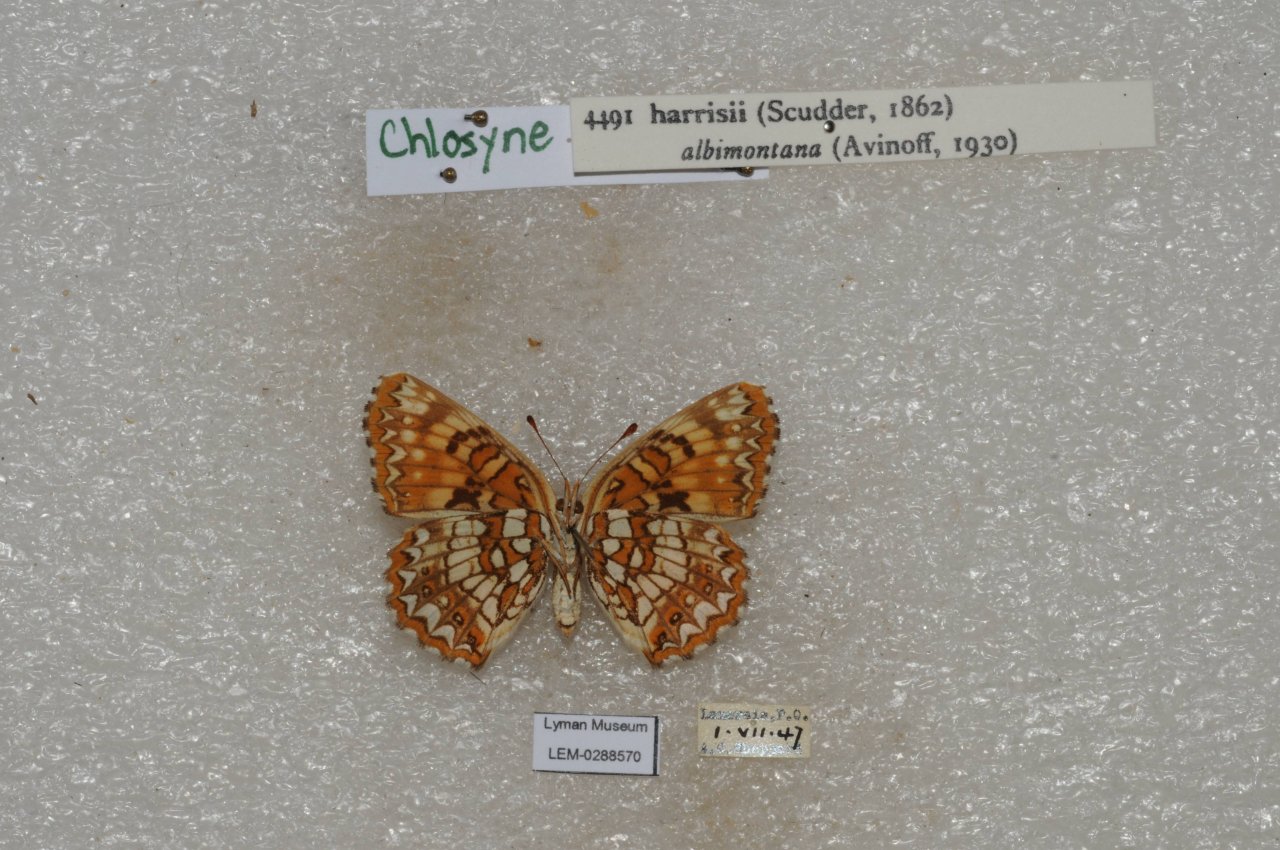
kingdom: Animalia
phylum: Arthropoda
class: Insecta
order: Lepidoptera
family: Nymphalidae
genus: Chlosyne
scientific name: Chlosyne harrisii
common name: Harris's Checkerspot
